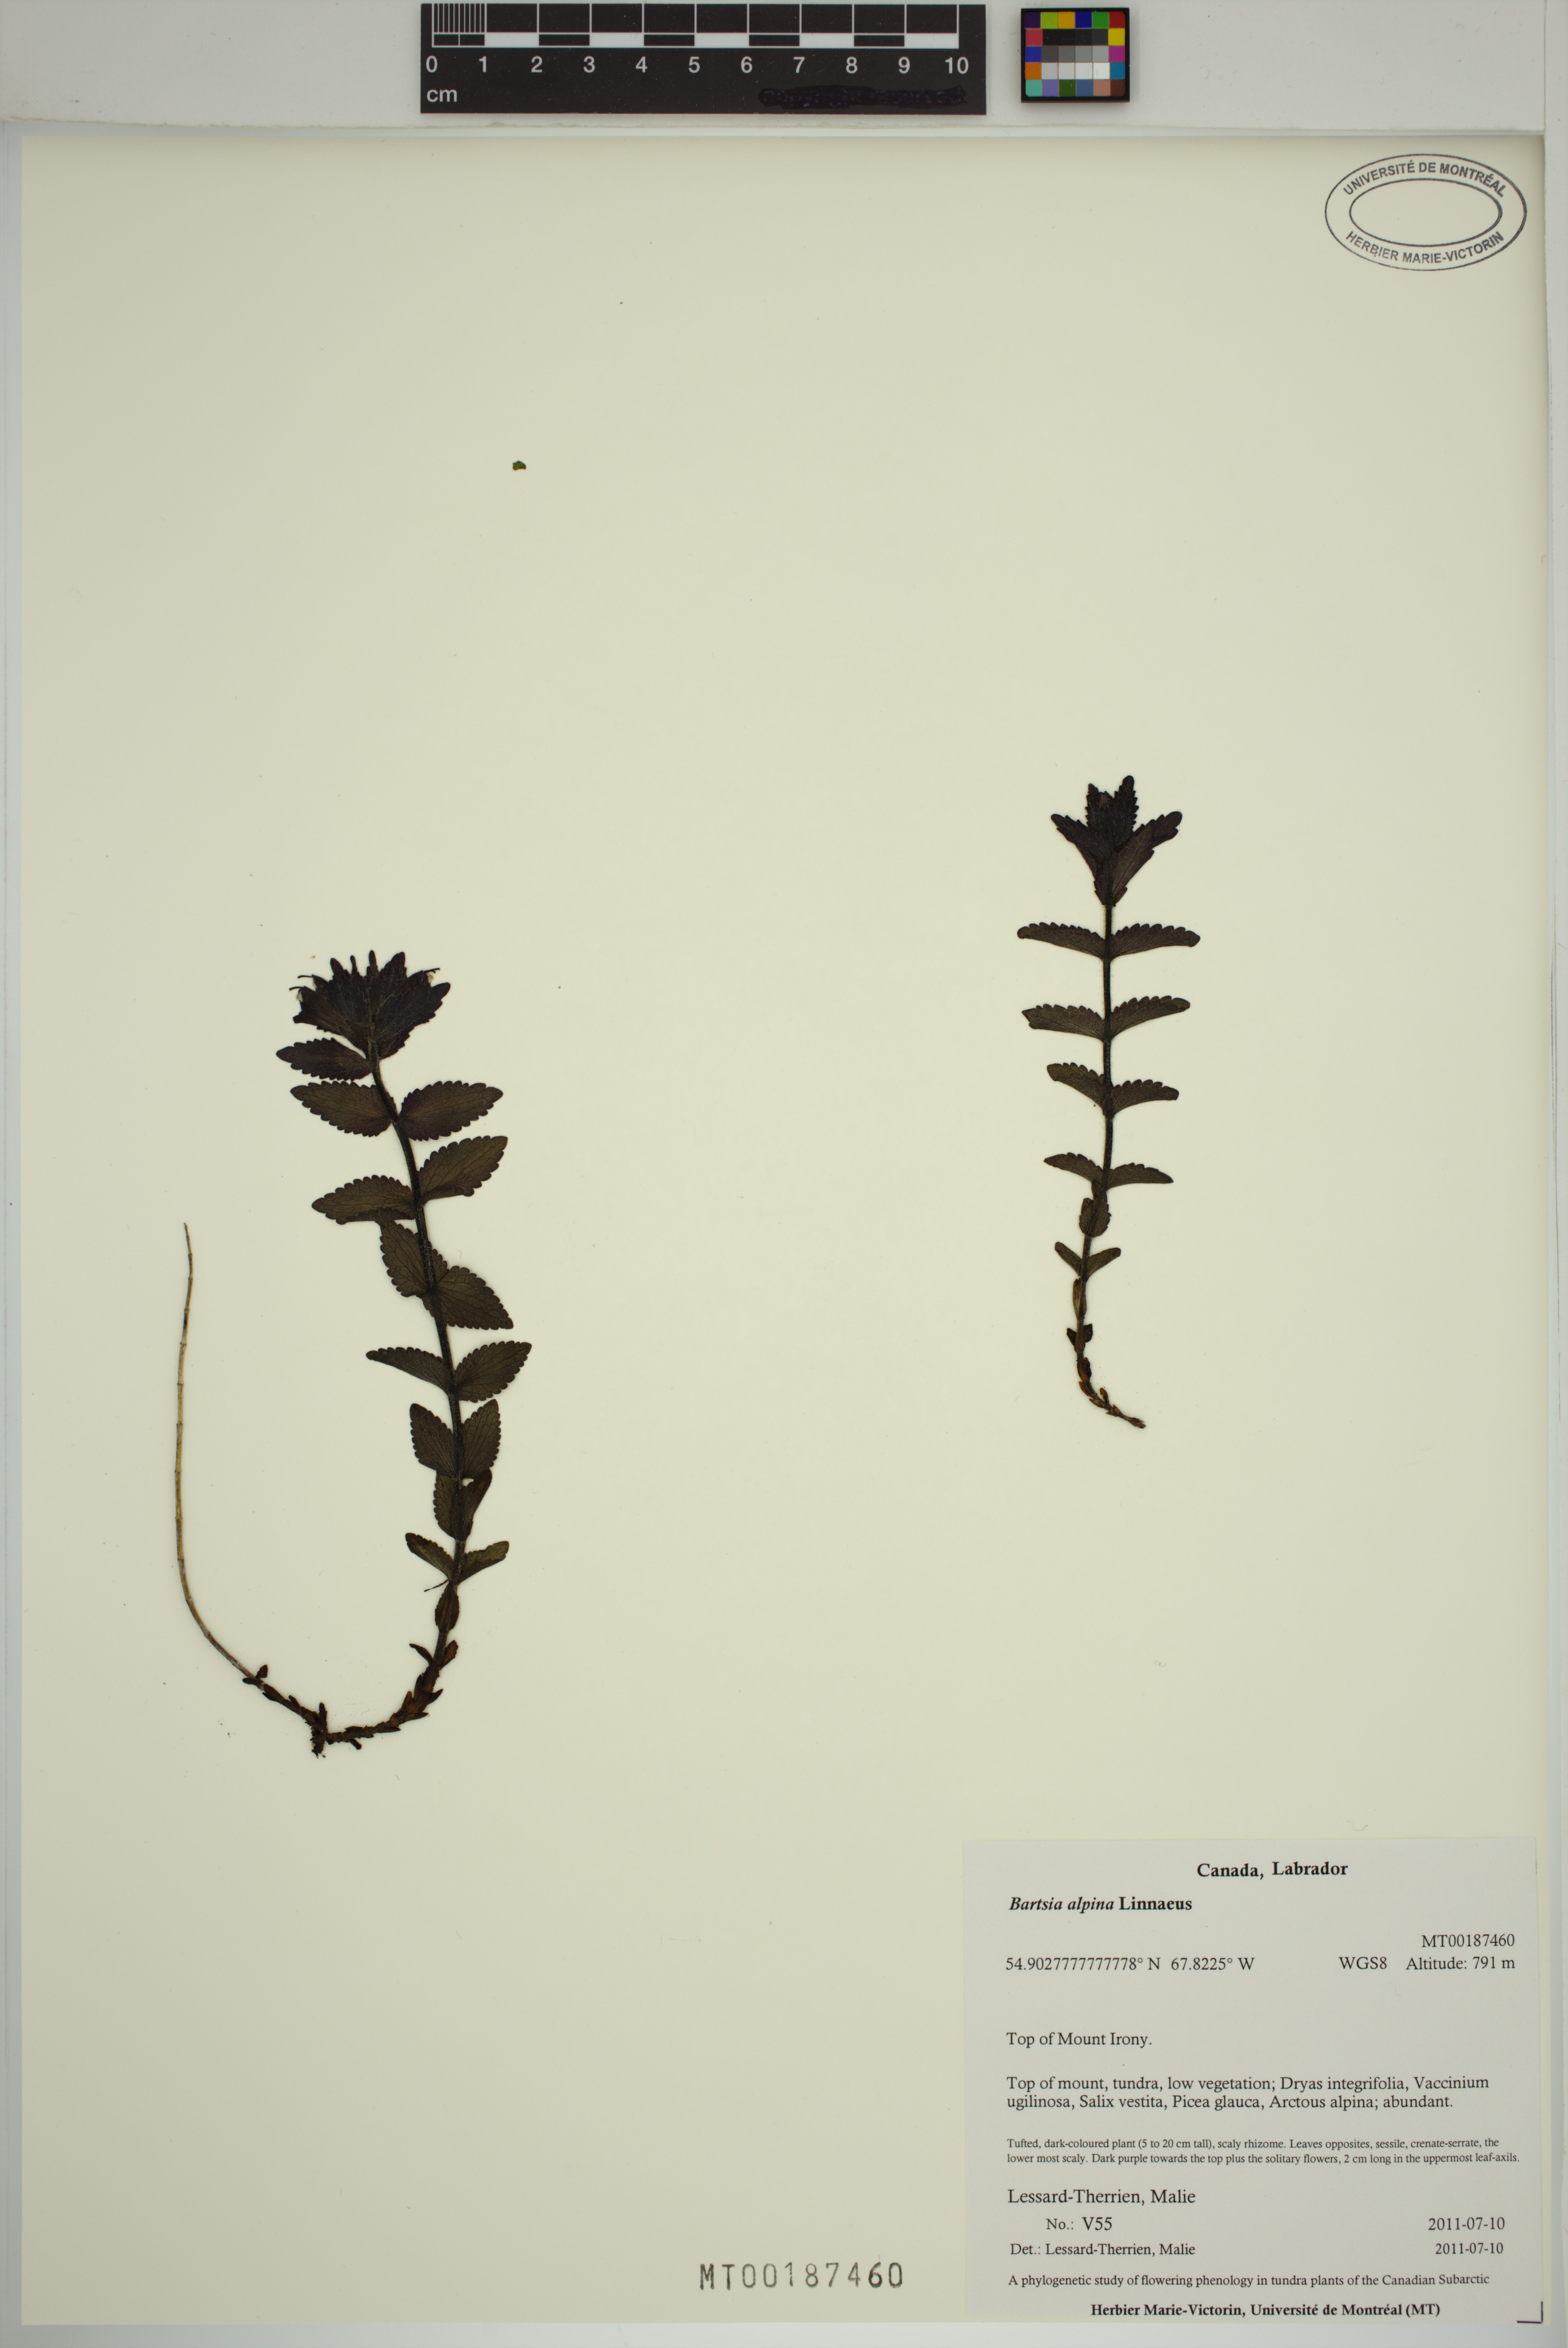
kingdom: Plantae
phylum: Tracheophyta
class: Magnoliopsida
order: Lamiales
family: Orobanchaceae
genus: Bartsia
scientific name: Bartsia alpina
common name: Alpine bartsia
